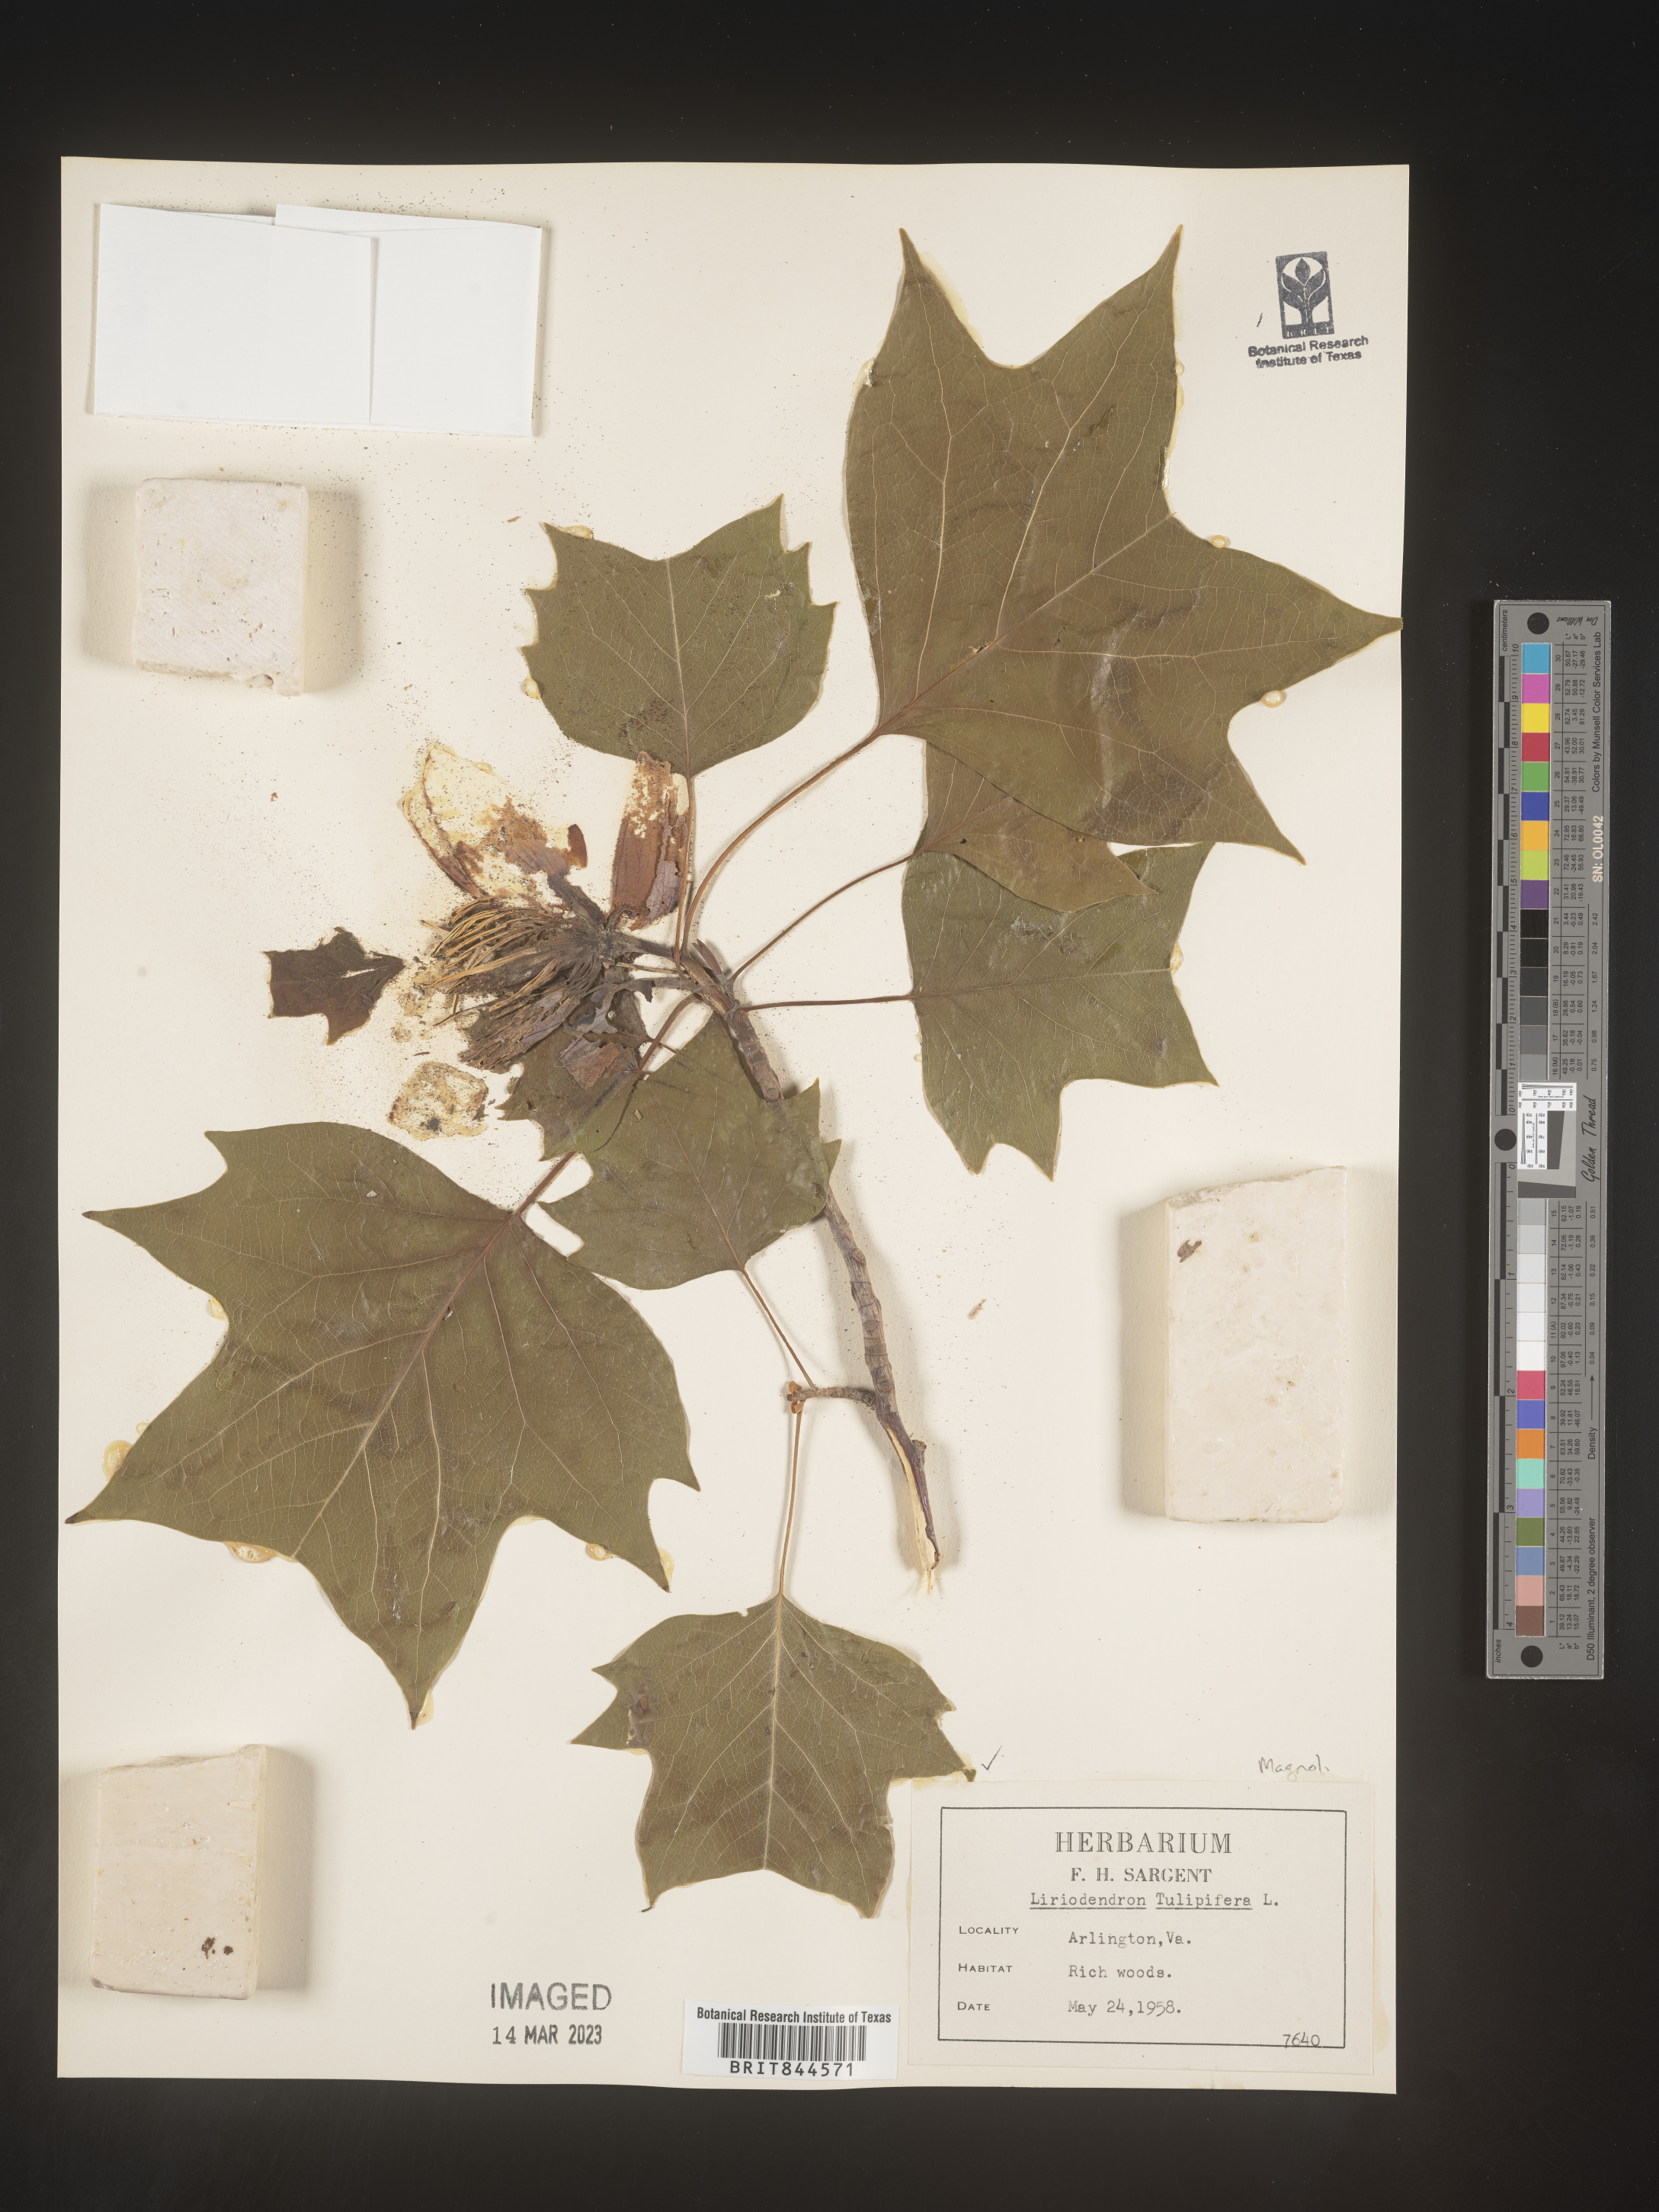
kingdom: Plantae
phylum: Tracheophyta
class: Magnoliopsida
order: Magnoliales
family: Magnoliaceae
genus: Liriodendron
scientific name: Liriodendron tulipifera
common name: Tulip tree
